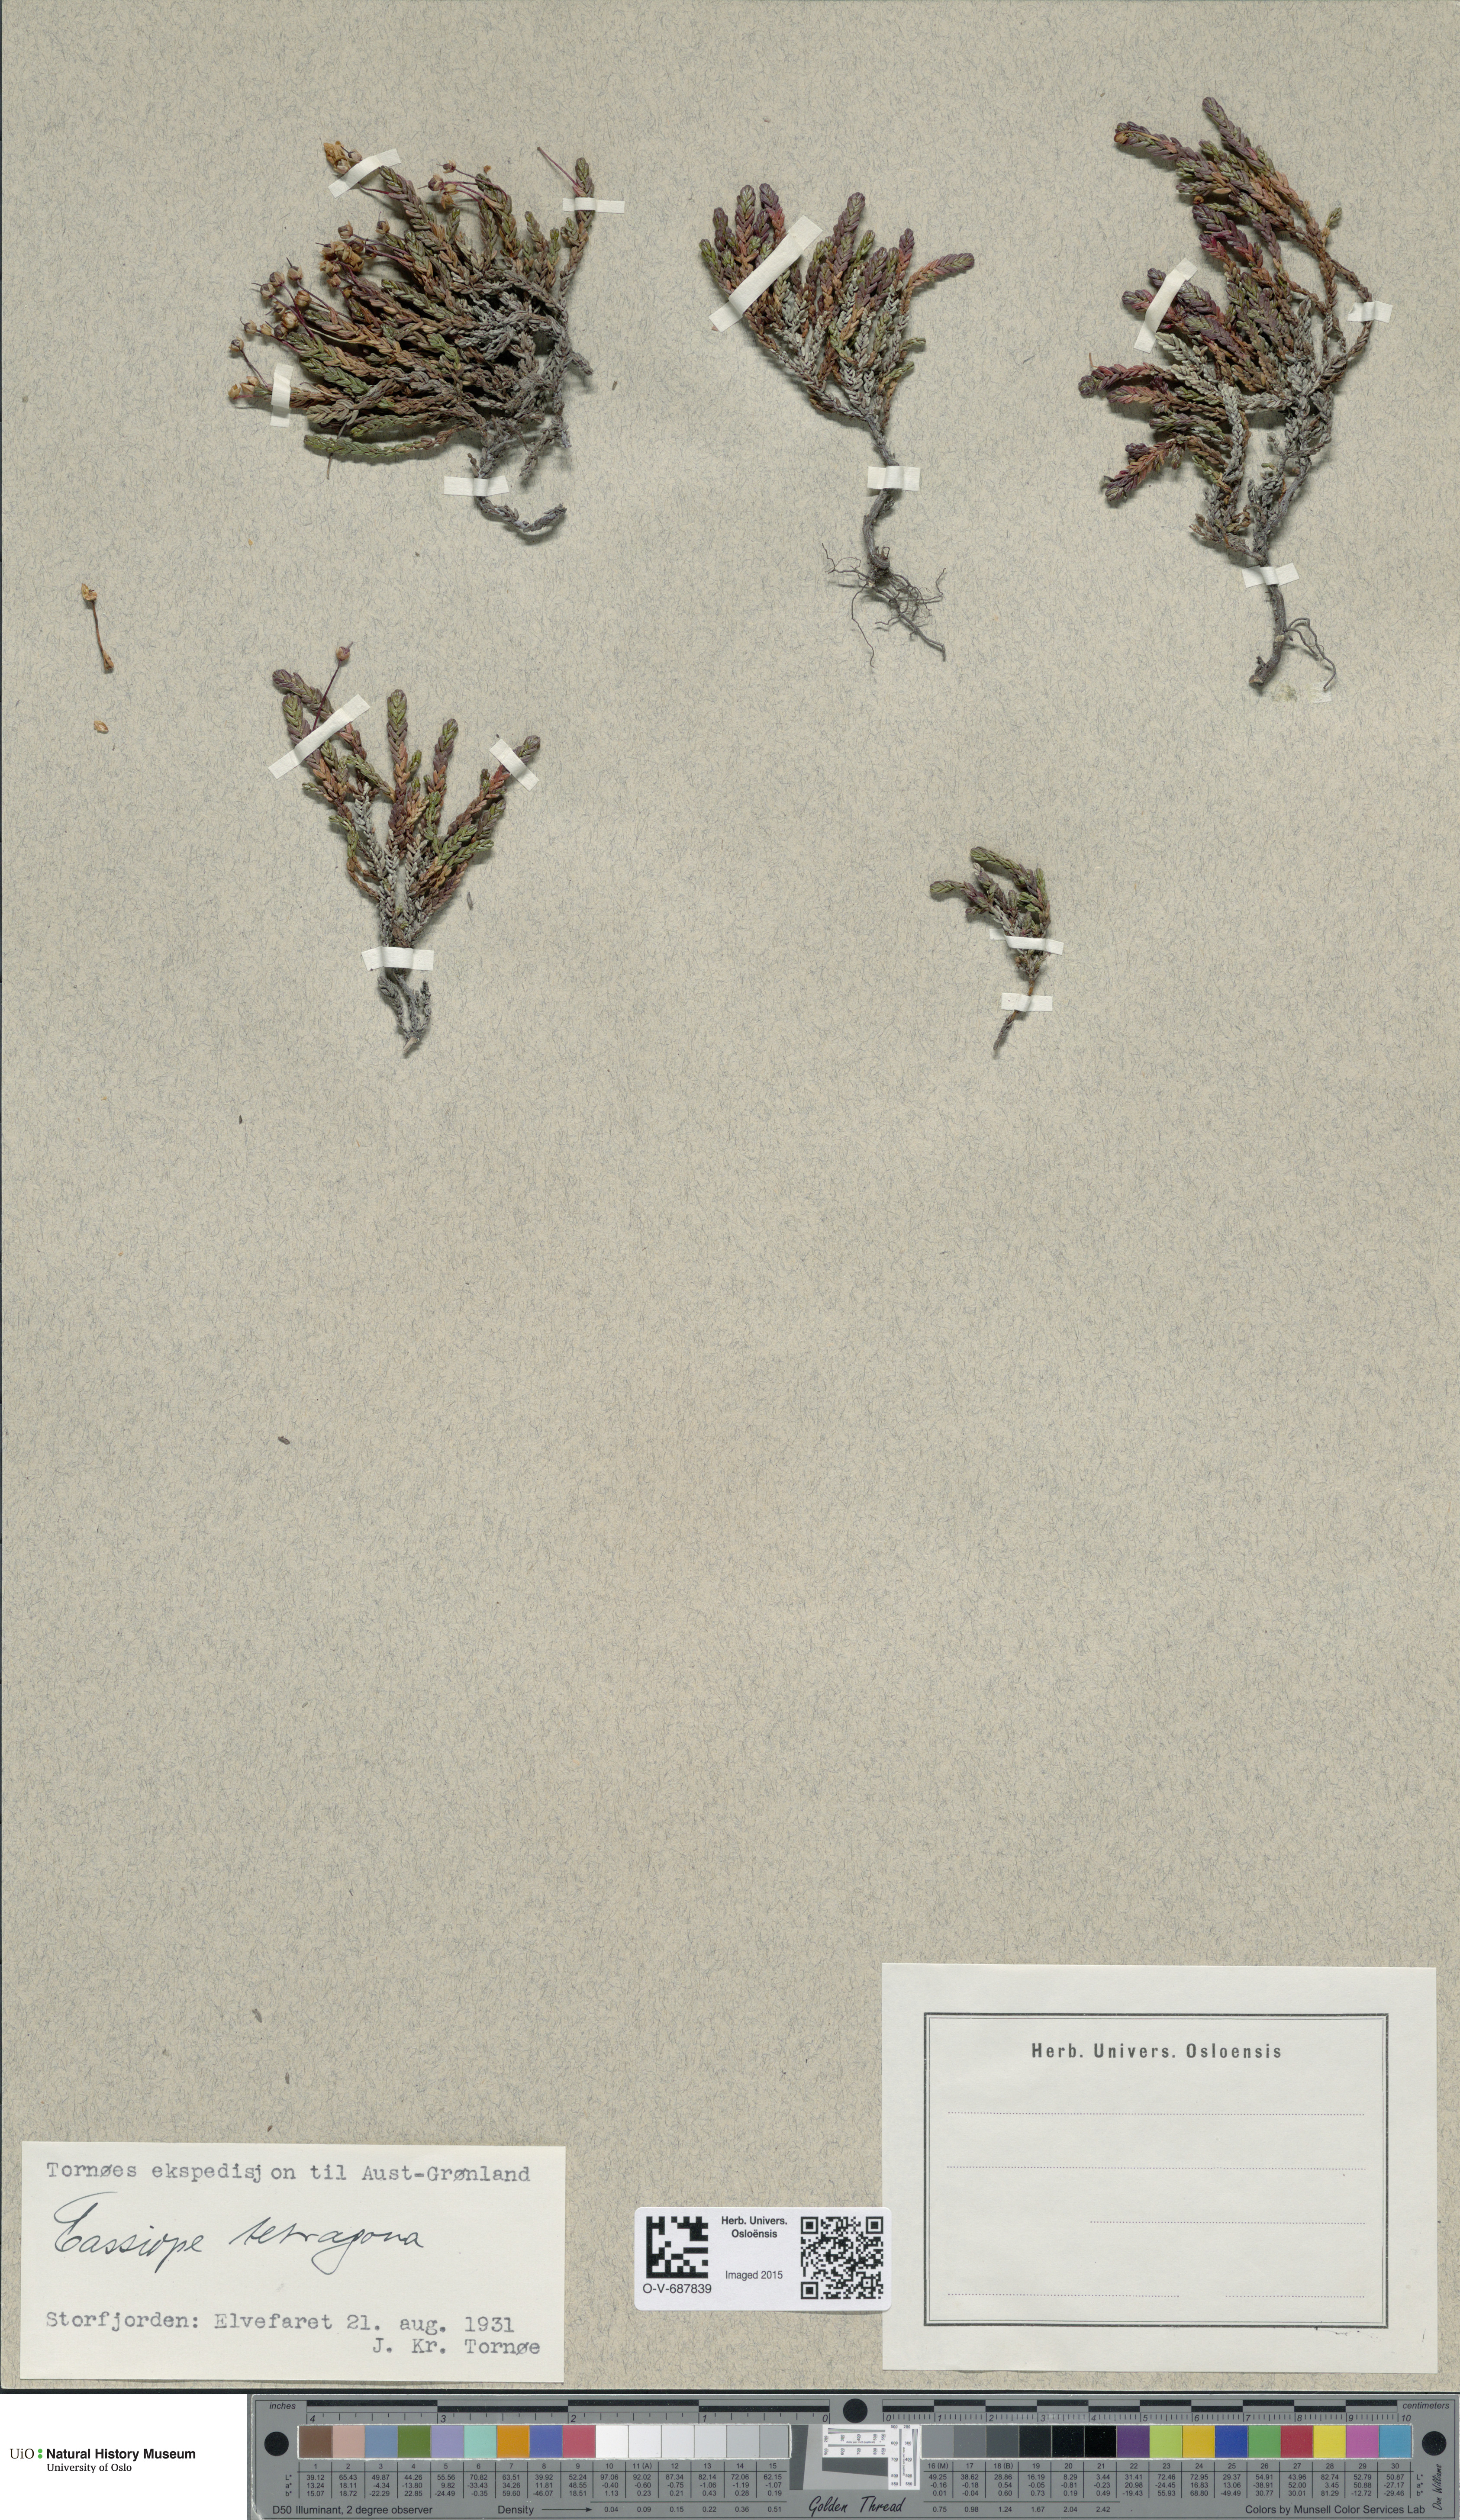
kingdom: Plantae
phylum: Tracheophyta
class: Magnoliopsida
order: Ericales
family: Ericaceae
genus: Cassiope
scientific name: Cassiope tetragona
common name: Arctic bell heather
